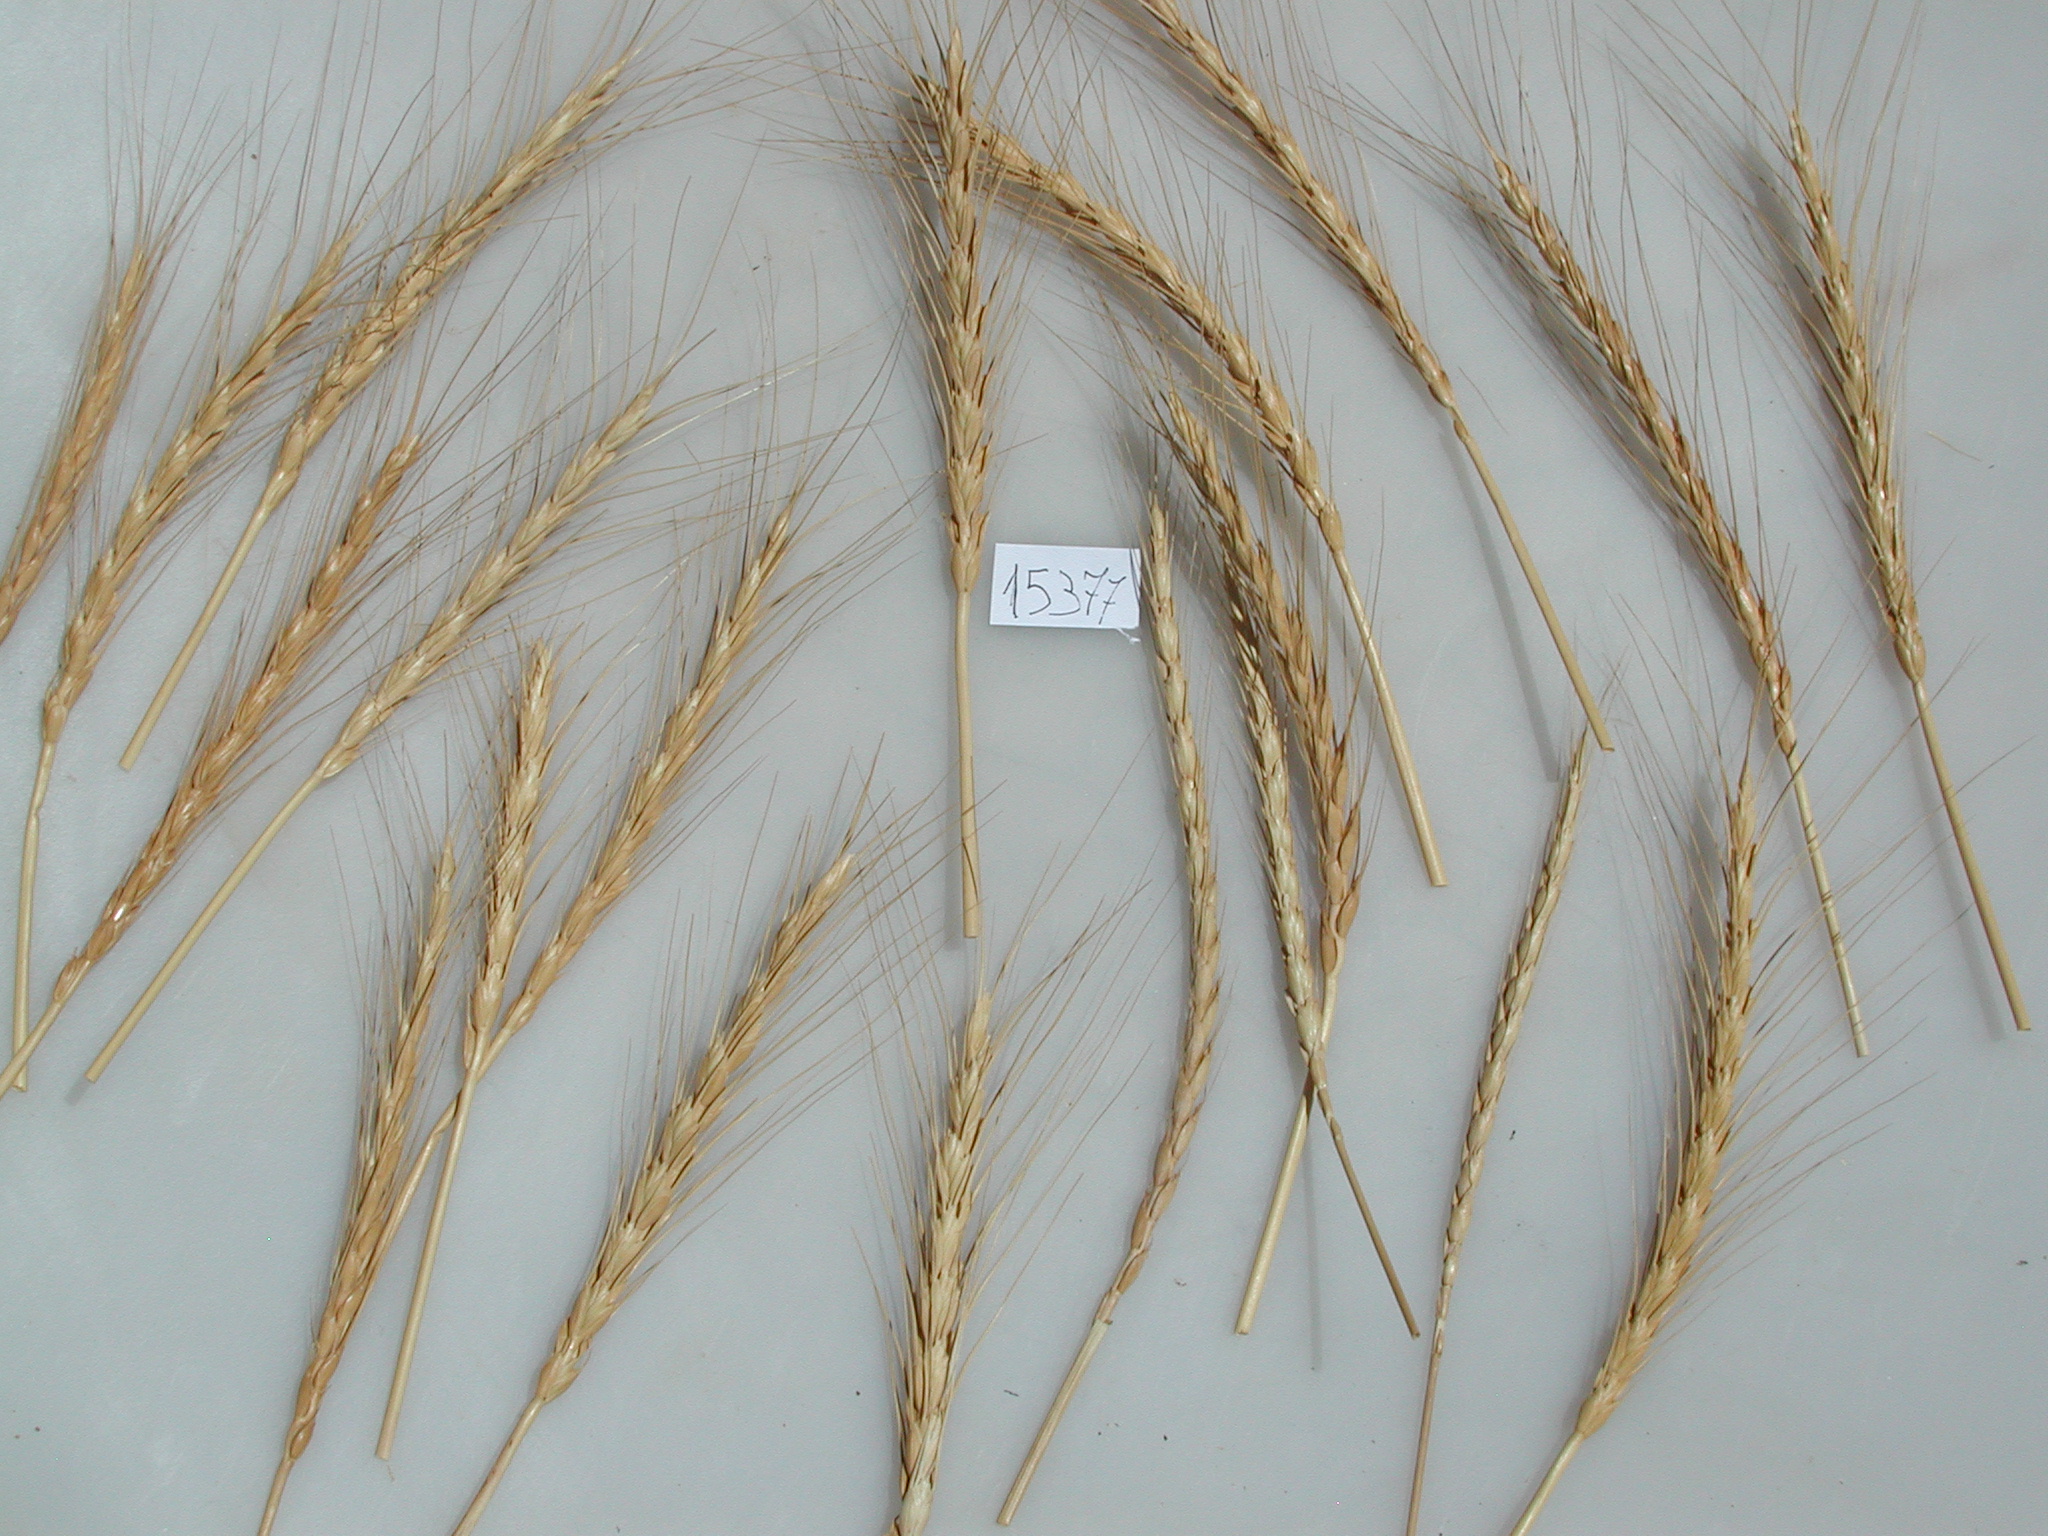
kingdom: Plantae
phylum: Tracheophyta
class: Liliopsida
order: Poales
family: Poaceae
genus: Triticum
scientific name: Triticum aestivum
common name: Common wheat
